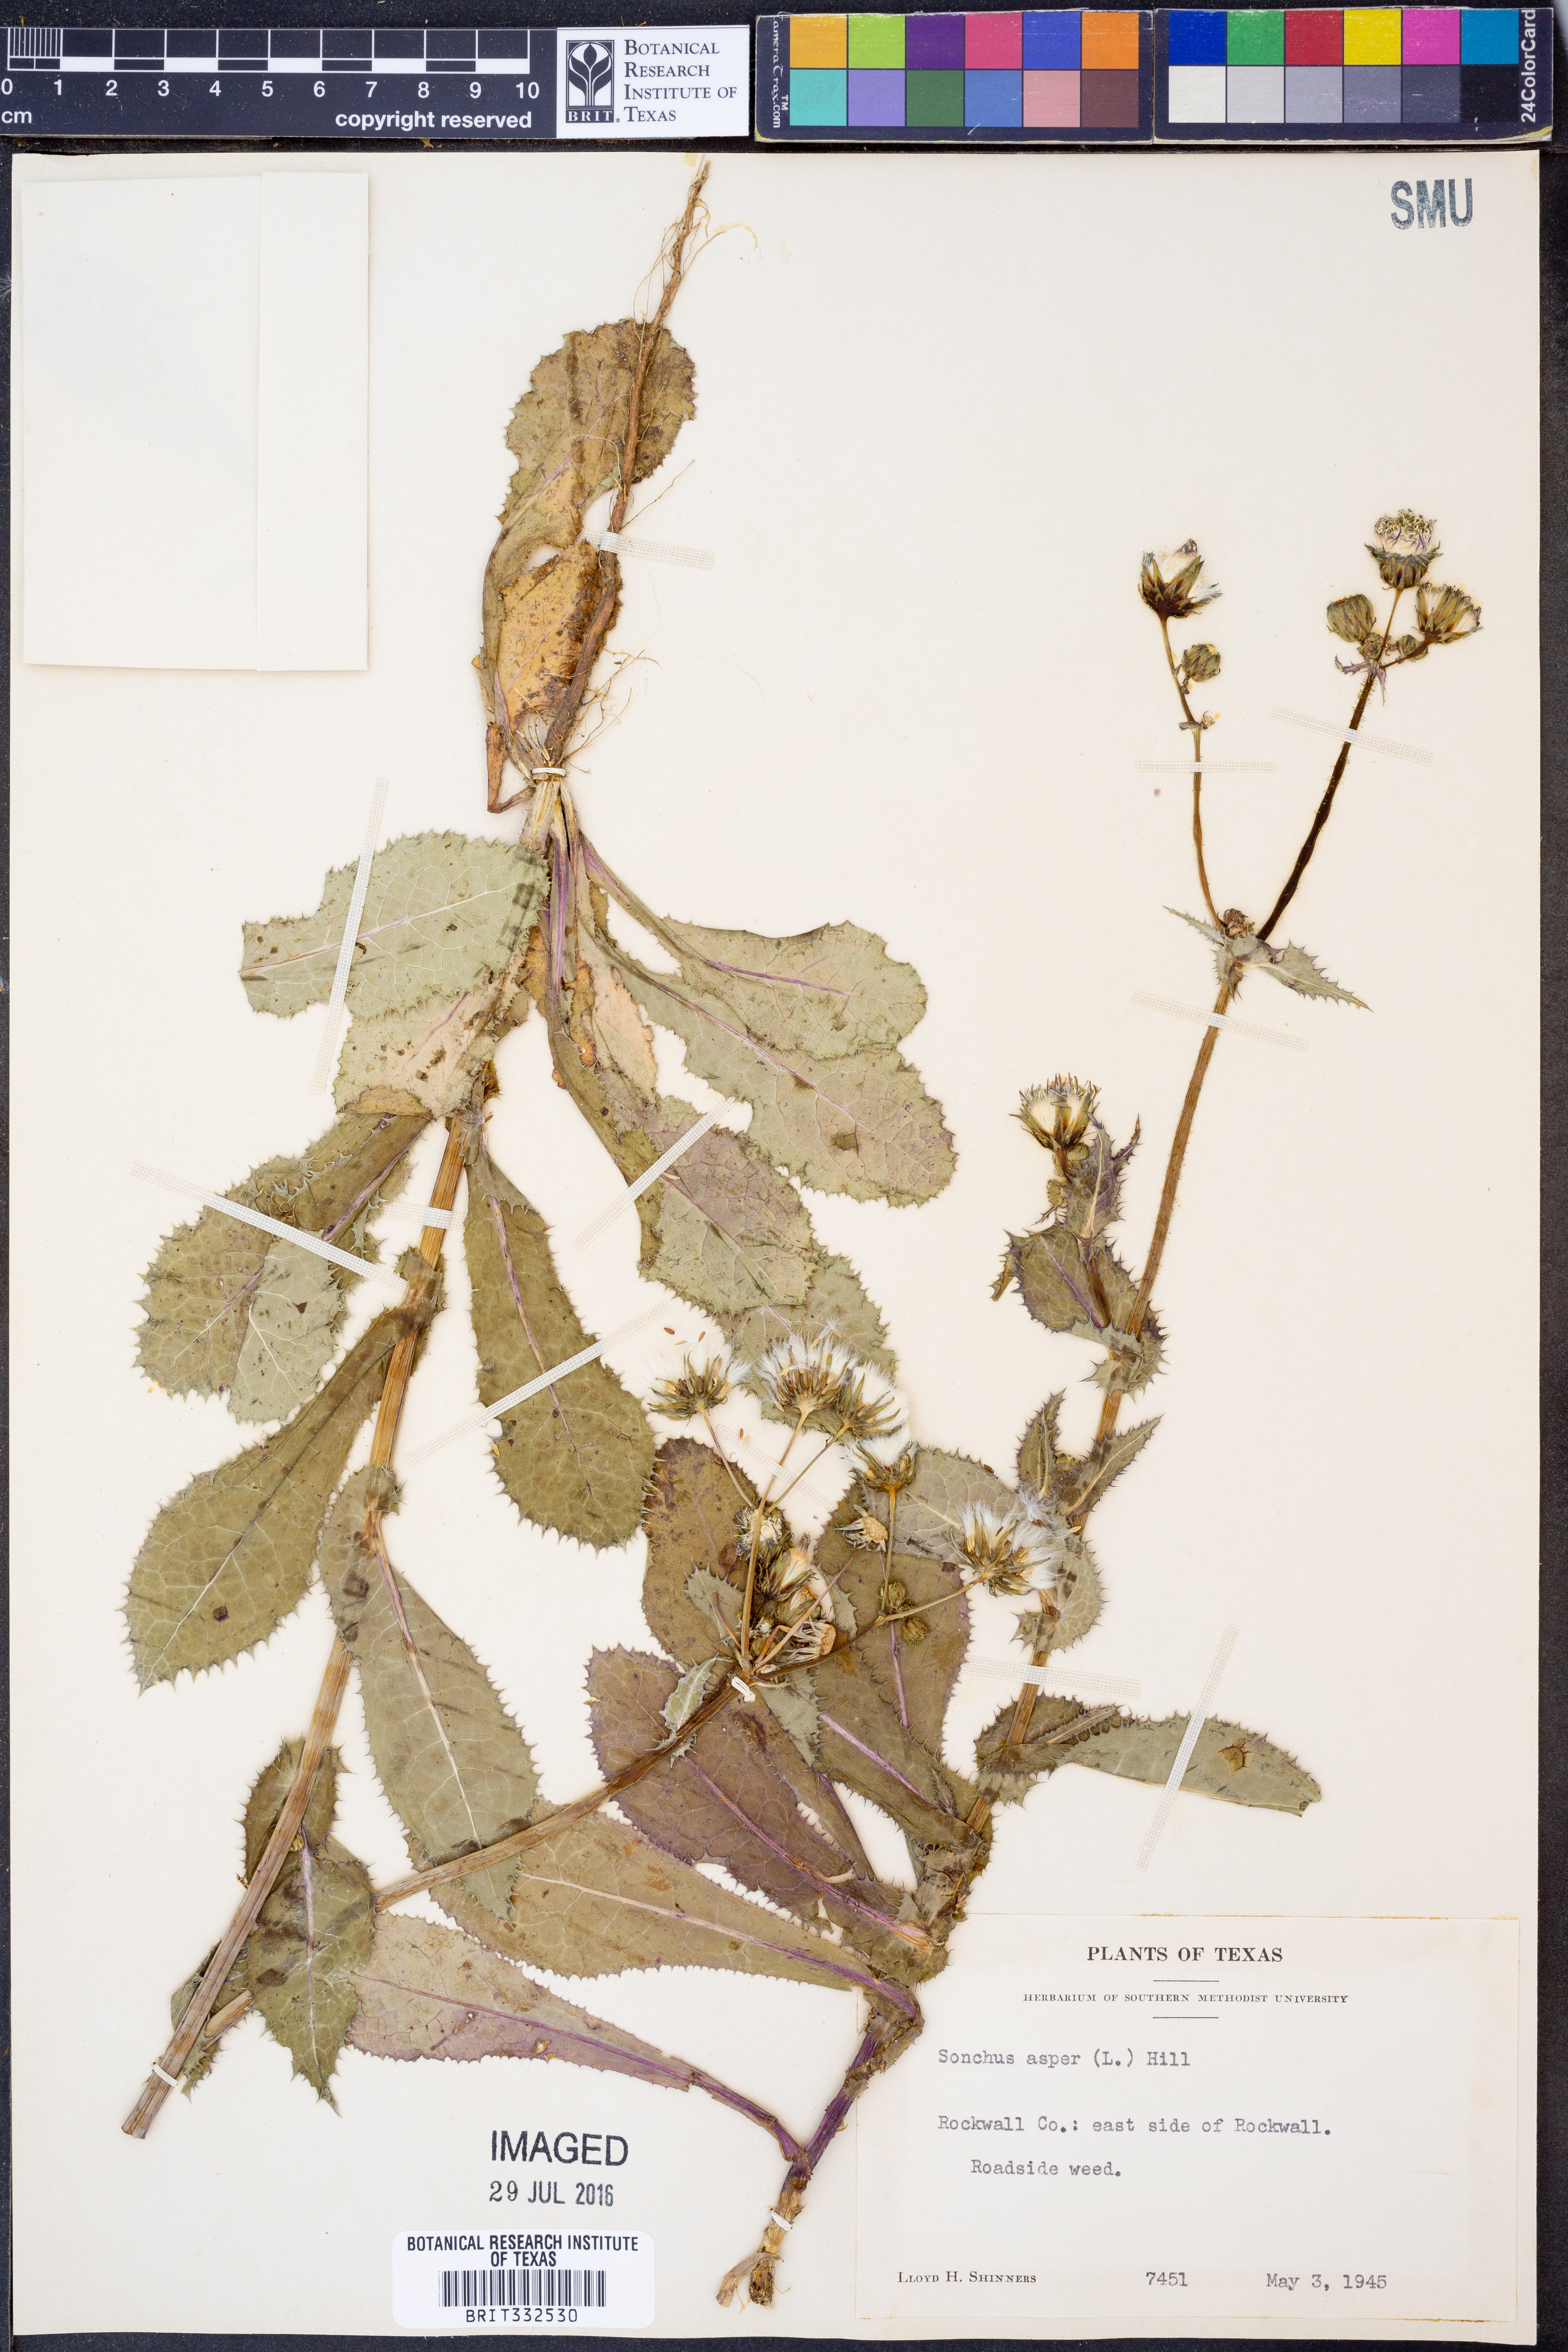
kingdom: Plantae
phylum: Tracheophyta
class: Magnoliopsida
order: Asterales
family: Asteraceae
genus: Sonchus
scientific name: Sonchus asper
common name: Prickly sow-thistle
